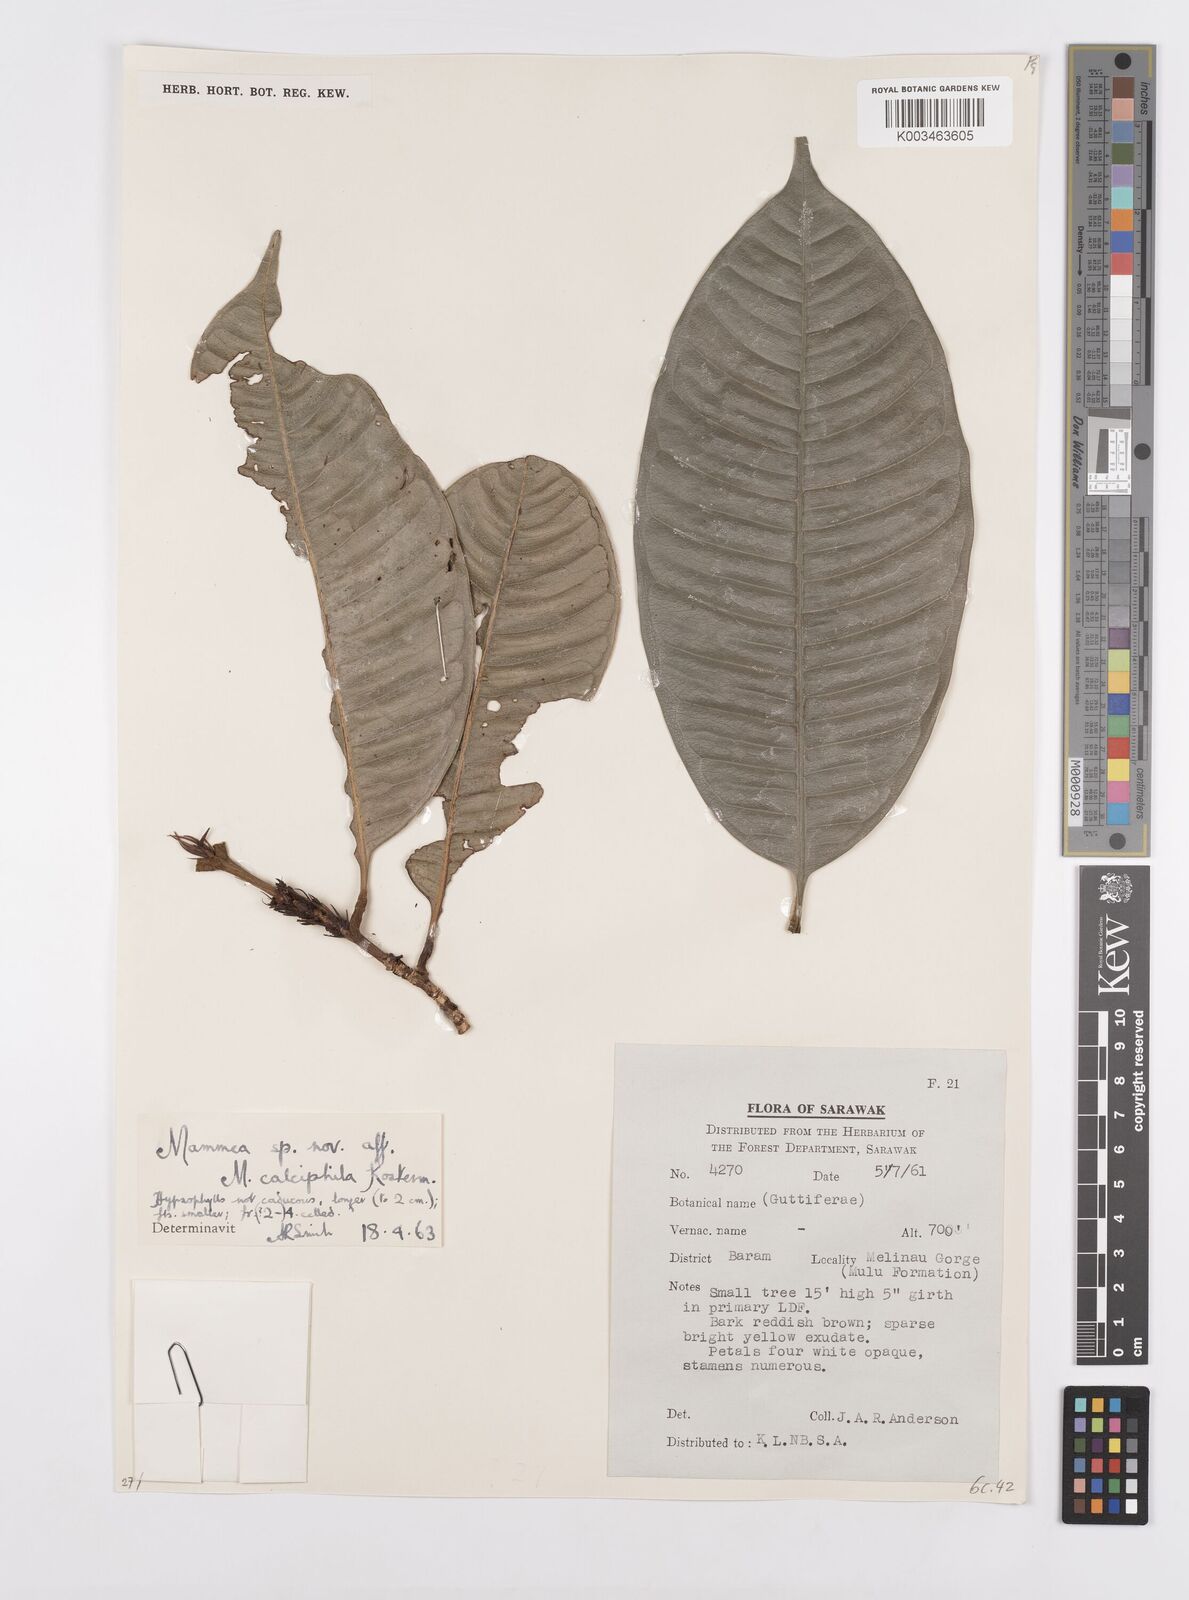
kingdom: Plantae
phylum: Tracheophyta
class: Magnoliopsida
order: Malpighiales
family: Calophyllaceae
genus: Mammea
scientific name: Mammea calciphila
